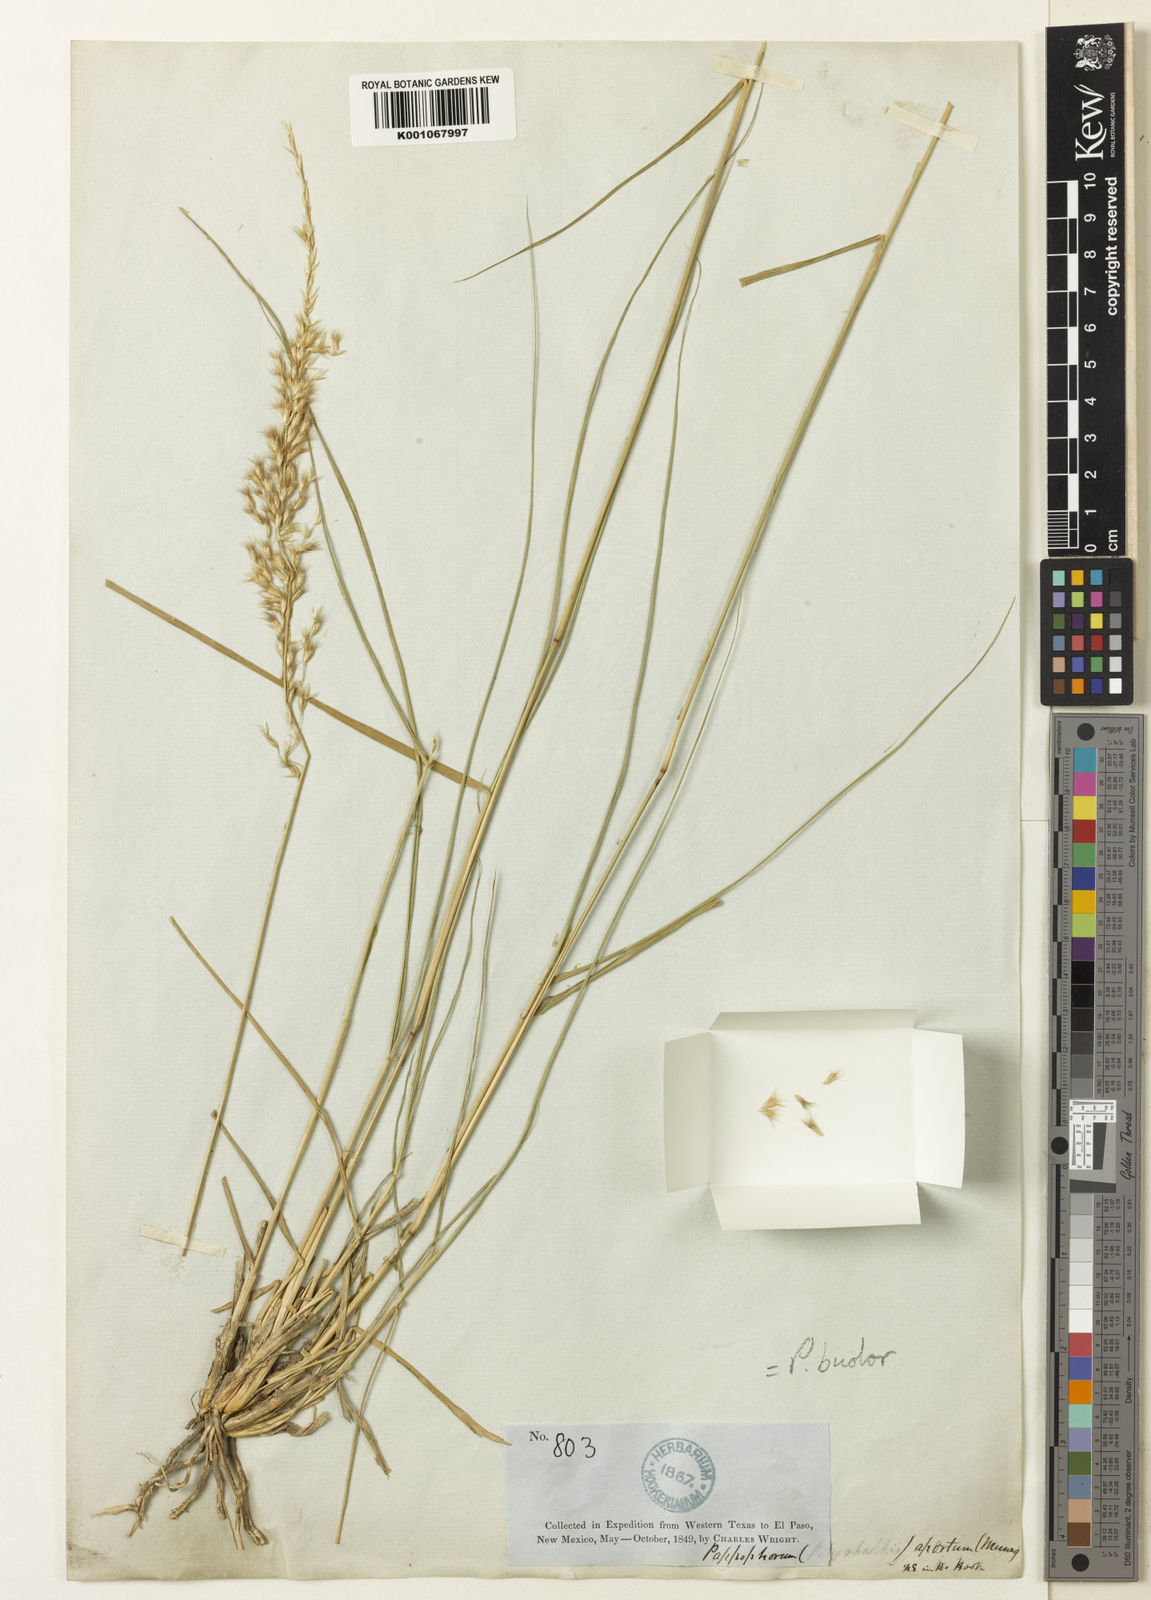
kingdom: Plantae
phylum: Tracheophyta
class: Liliopsida
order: Poales
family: Poaceae
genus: Pappophorum
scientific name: Pappophorum bicolor
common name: Pink pappus grass
